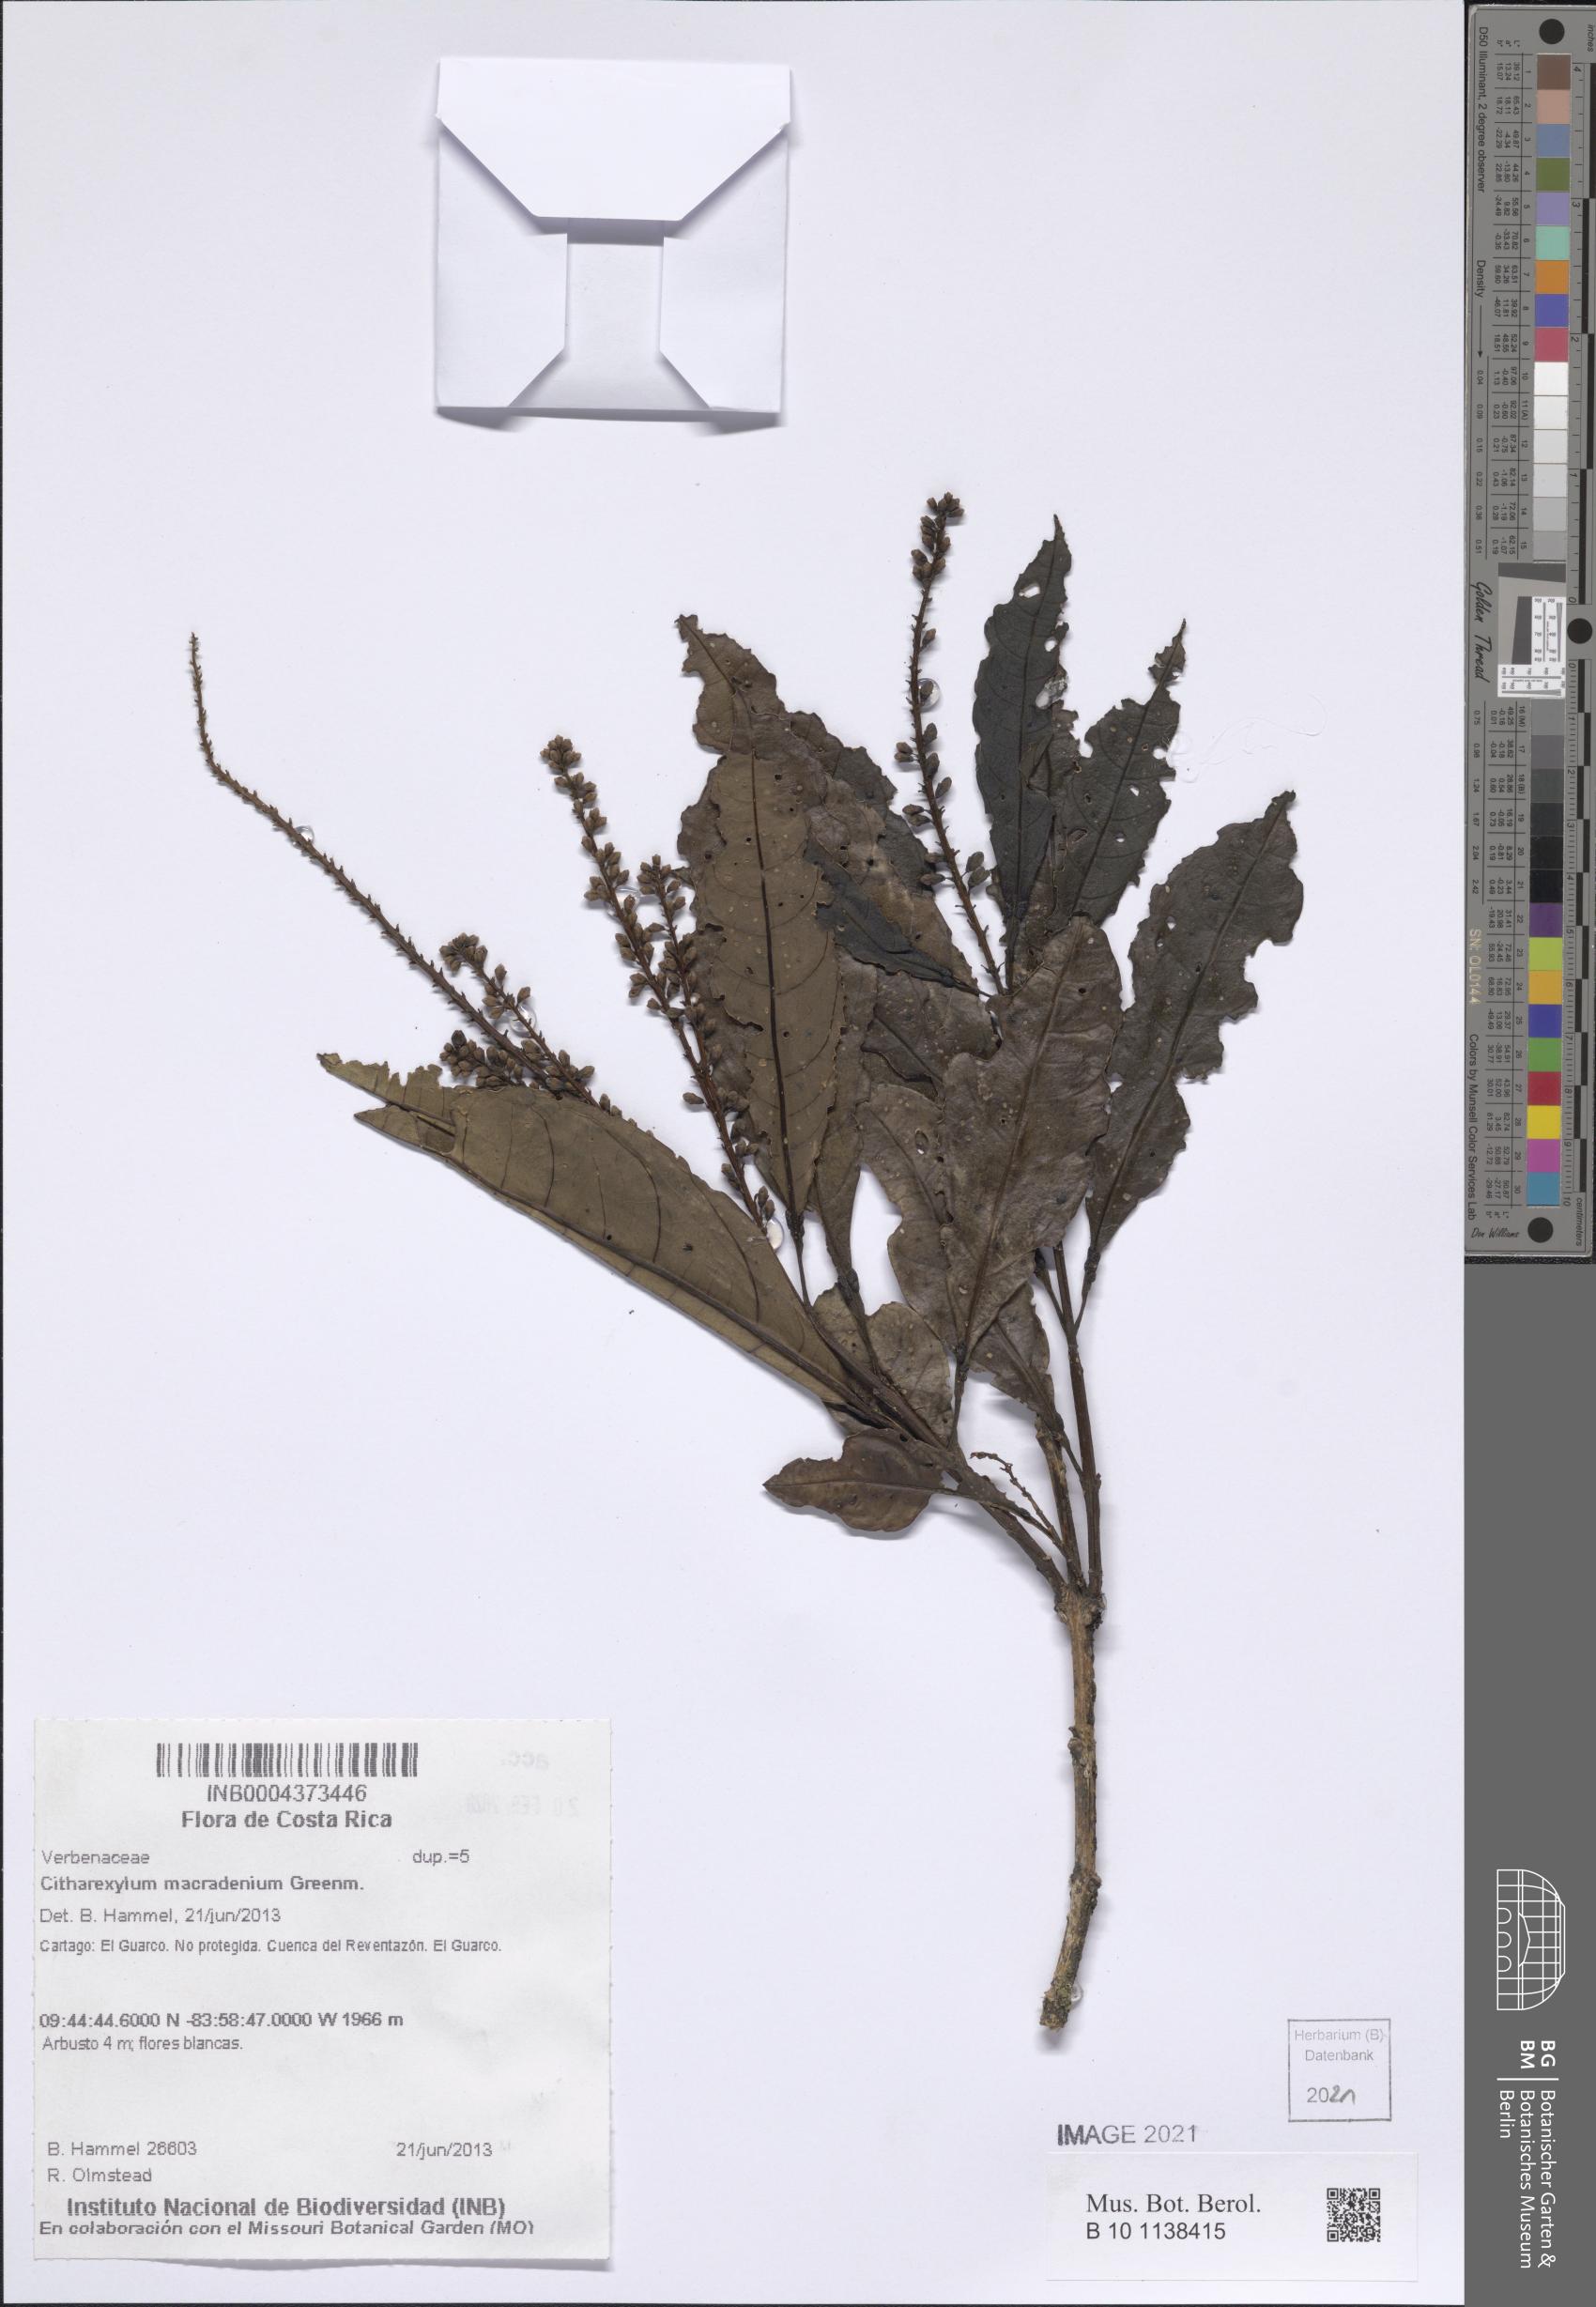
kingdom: Plantae
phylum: Tracheophyta
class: Magnoliopsida
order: Lamiales
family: Verbenaceae
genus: Citharexylum
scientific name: Citharexylum macradenium
